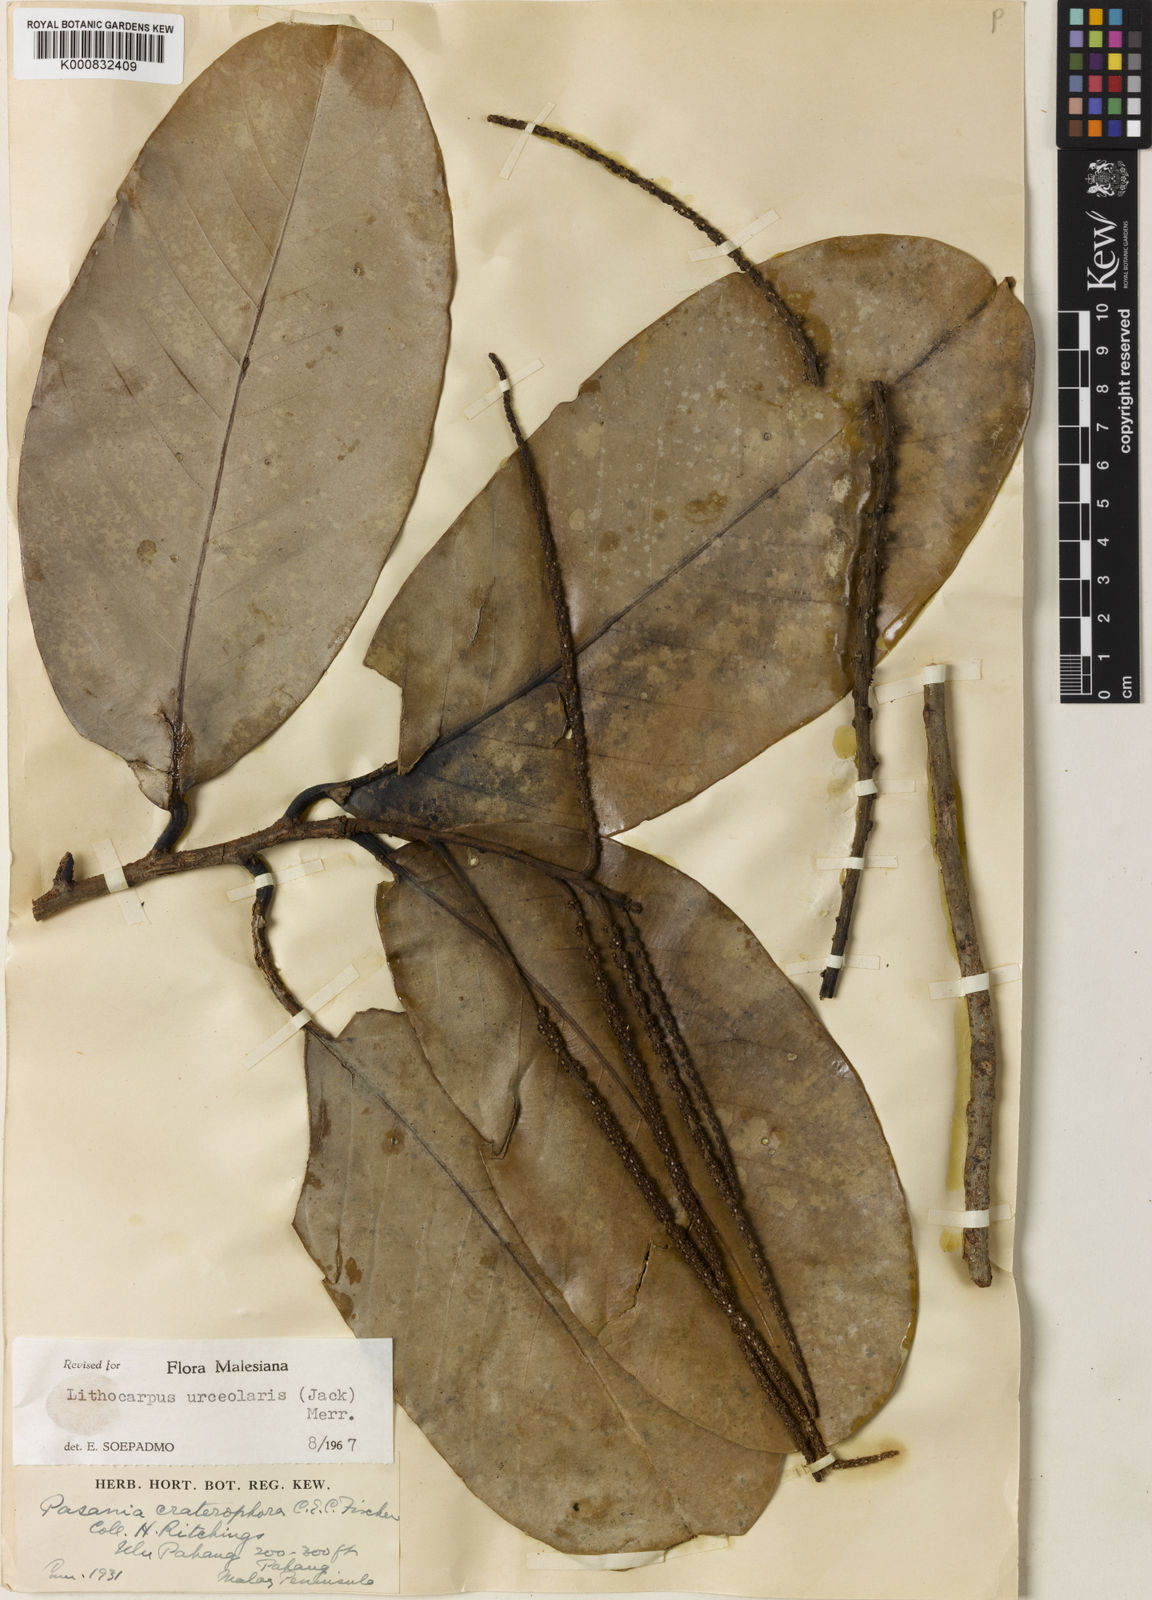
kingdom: Plantae
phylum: Tracheophyta
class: Magnoliopsida
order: Fagales
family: Fagaceae
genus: Lithocarpus
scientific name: Lithocarpus urceolaris
